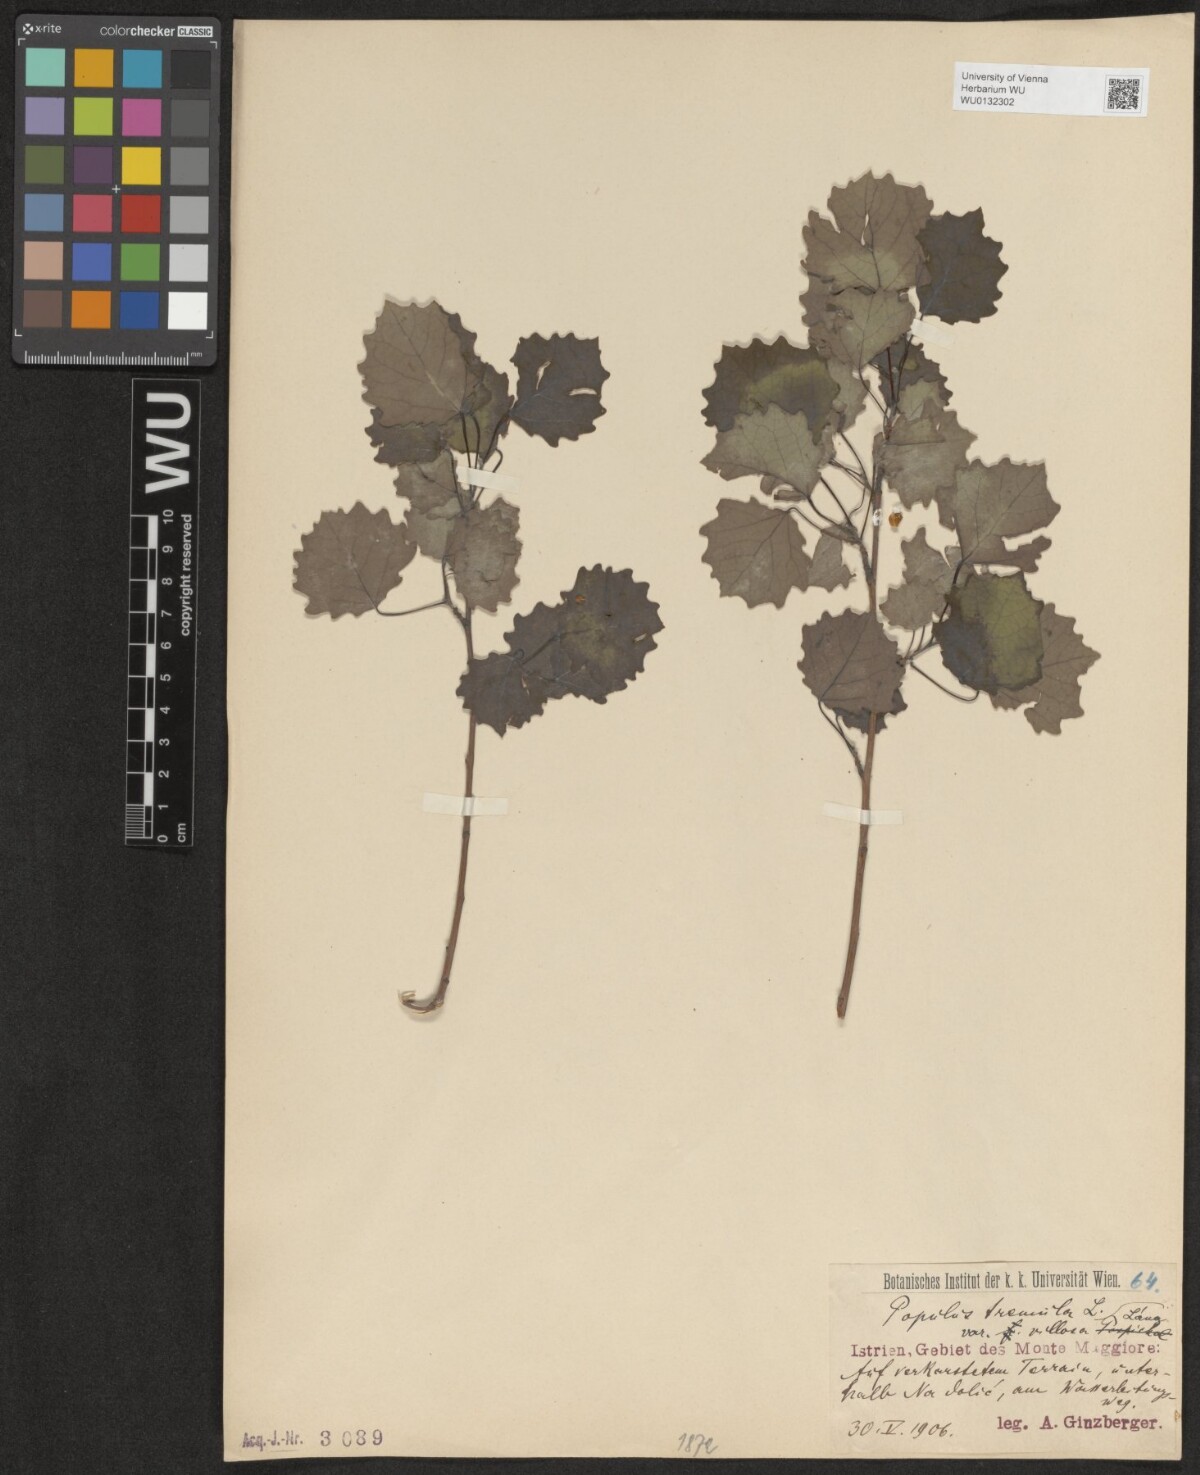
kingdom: Plantae
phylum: Tracheophyta
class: Magnoliopsida
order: Malpighiales
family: Salicaceae
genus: Populus
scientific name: Populus tremula
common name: European aspen
